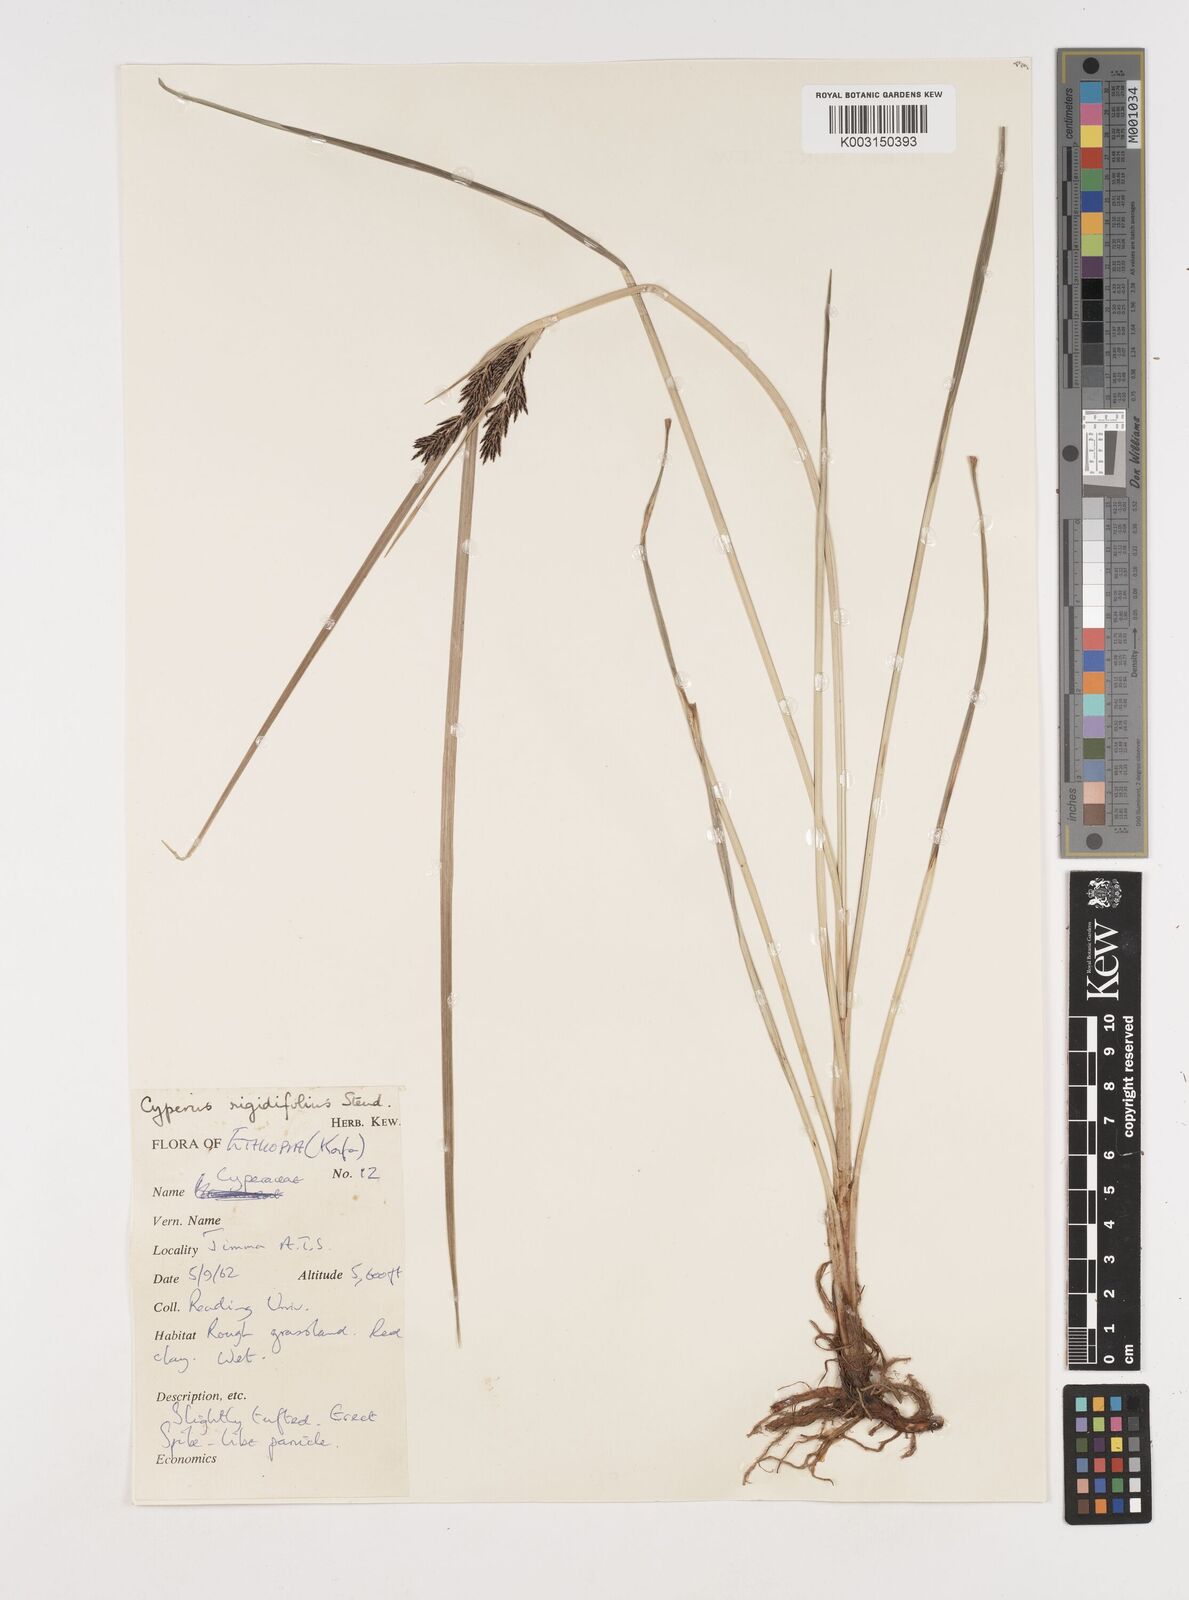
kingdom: Plantae
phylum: Tracheophyta
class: Liliopsida
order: Poales
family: Cyperaceae
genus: Cyperus
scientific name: Cyperus rigidifolius
